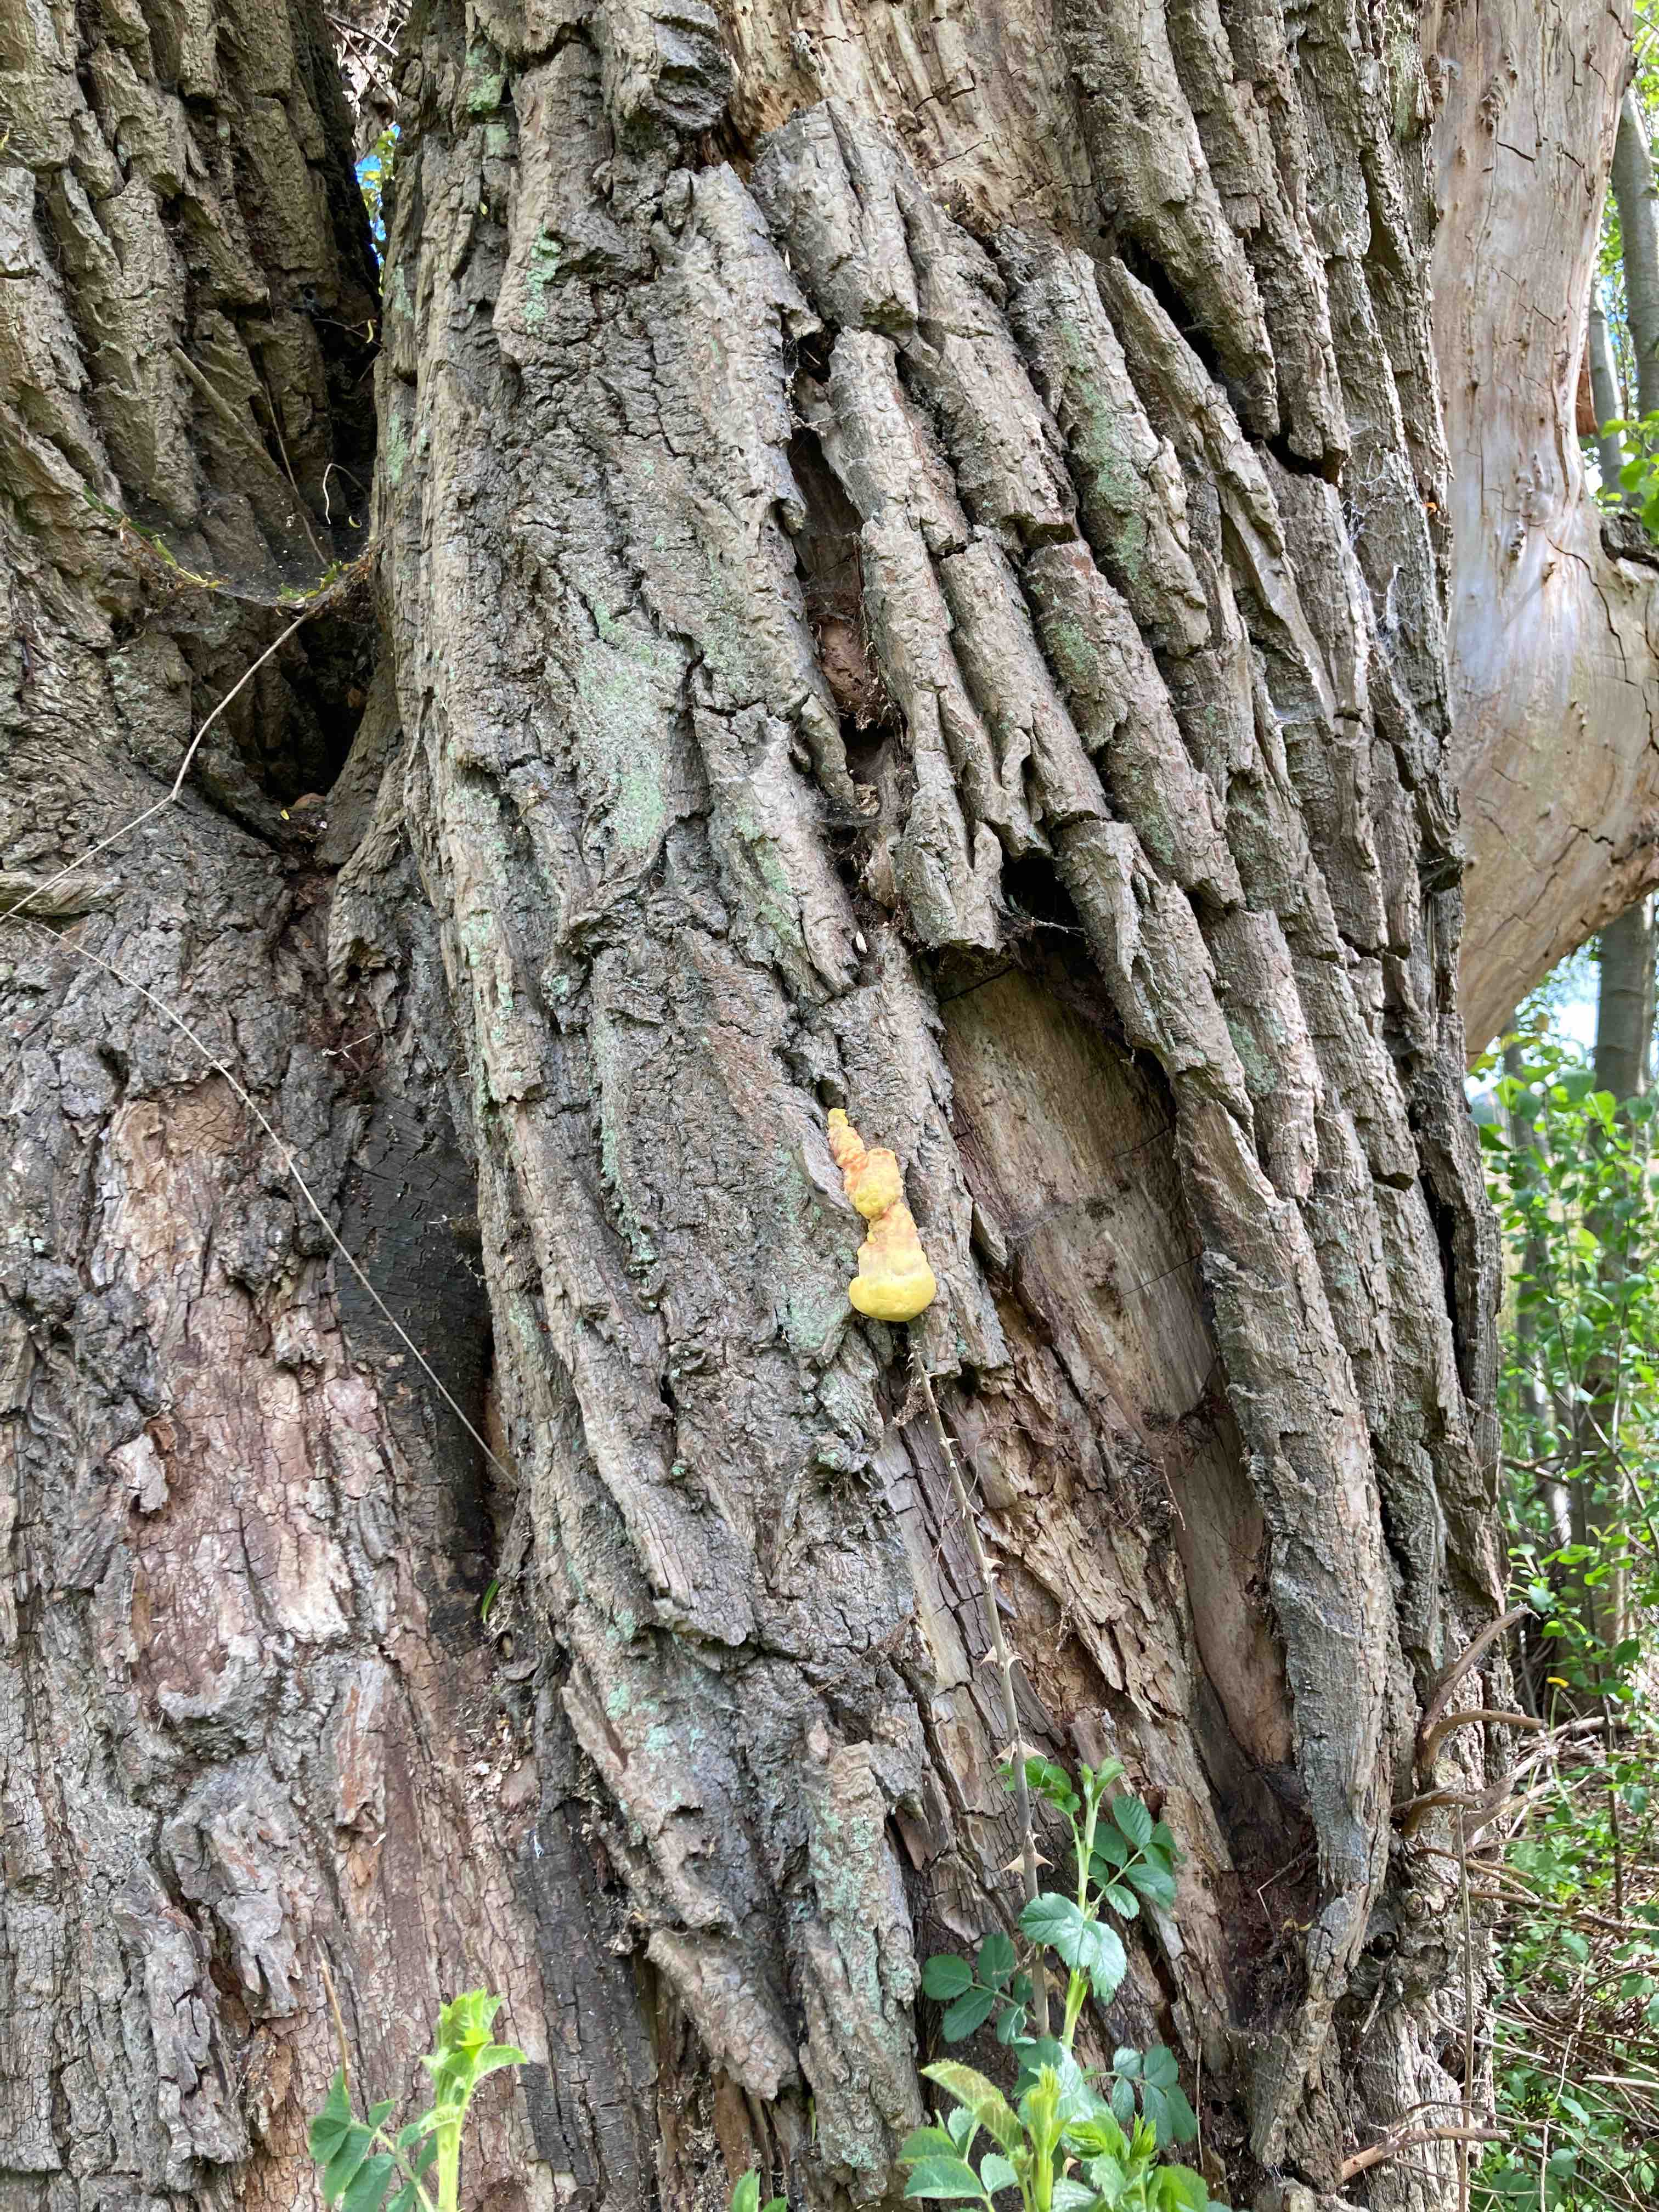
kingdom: Fungi
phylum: Basidiomycota
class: Agaricomycetes
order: Polyporales
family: Laetiporaceae
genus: Laetiporus
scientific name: Laetiporus sulphureus
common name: svovlporesvamp
